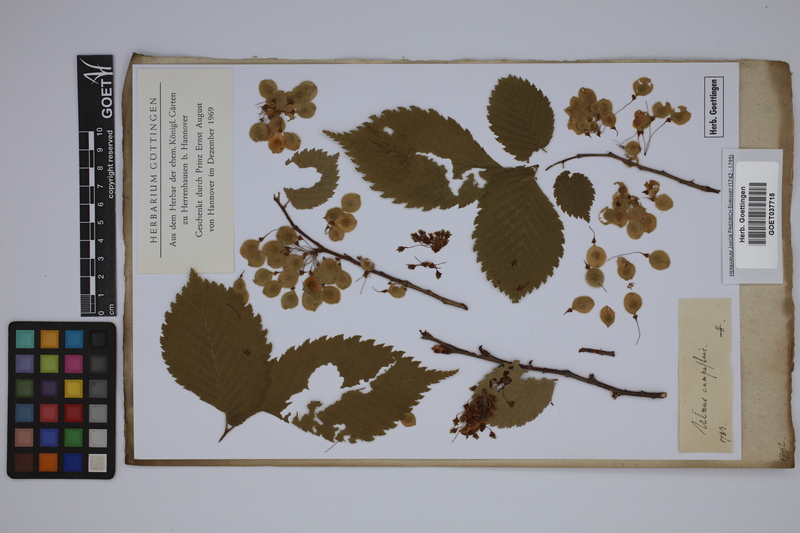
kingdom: Plantae
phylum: Tracheophyta
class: Magnoliopsida
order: Rosales
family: Ulmaceae
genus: Ulmus
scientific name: Ulmus laevis
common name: European white-elm
